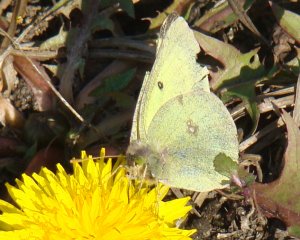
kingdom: Animalia
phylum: Arthropoda
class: Insecta
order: Lepidoptera
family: Pieridae
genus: Colias
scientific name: Colias philodice
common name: Clouded Sulphur
